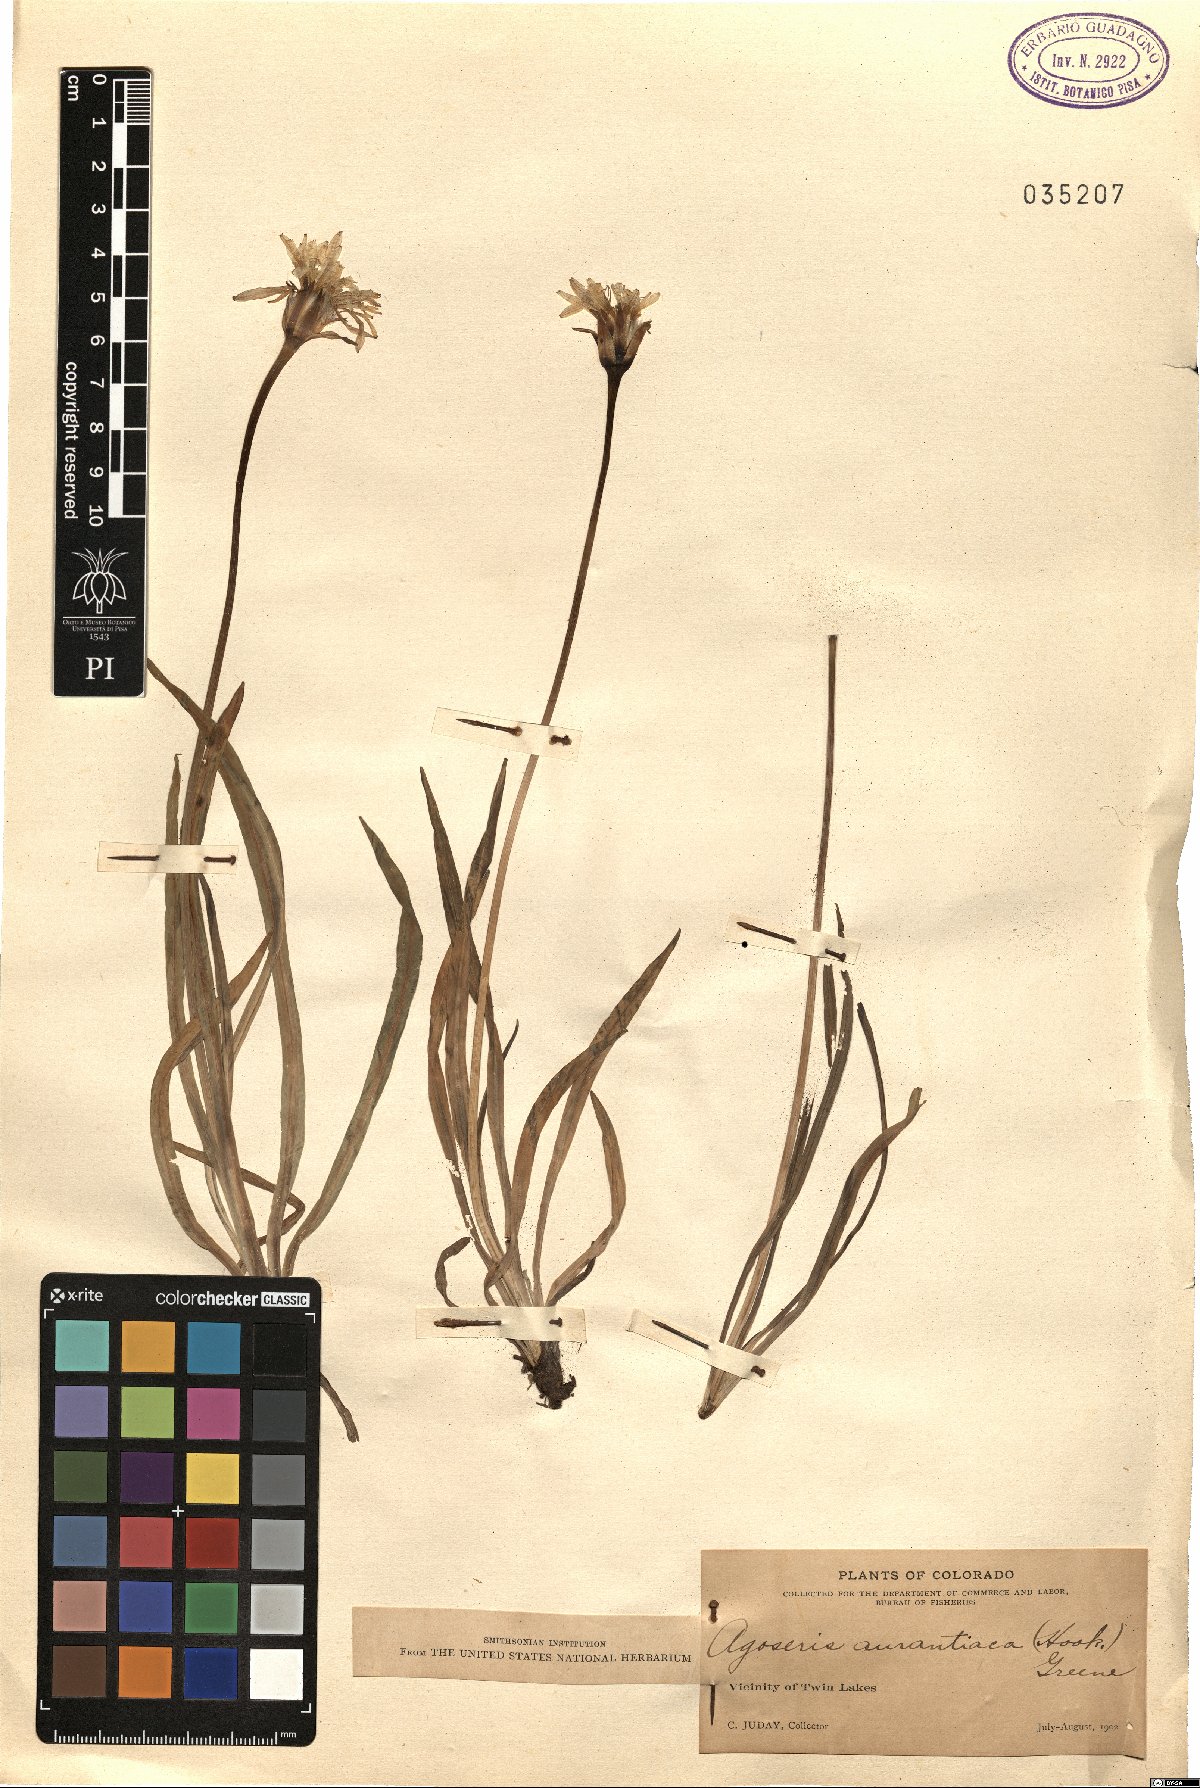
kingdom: Plantae
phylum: Tracheophyta
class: Magnoliopsida
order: Asterales
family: Asteraceae
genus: Agoseris
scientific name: Agoseris aurantiaca
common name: Mountain agoseris
